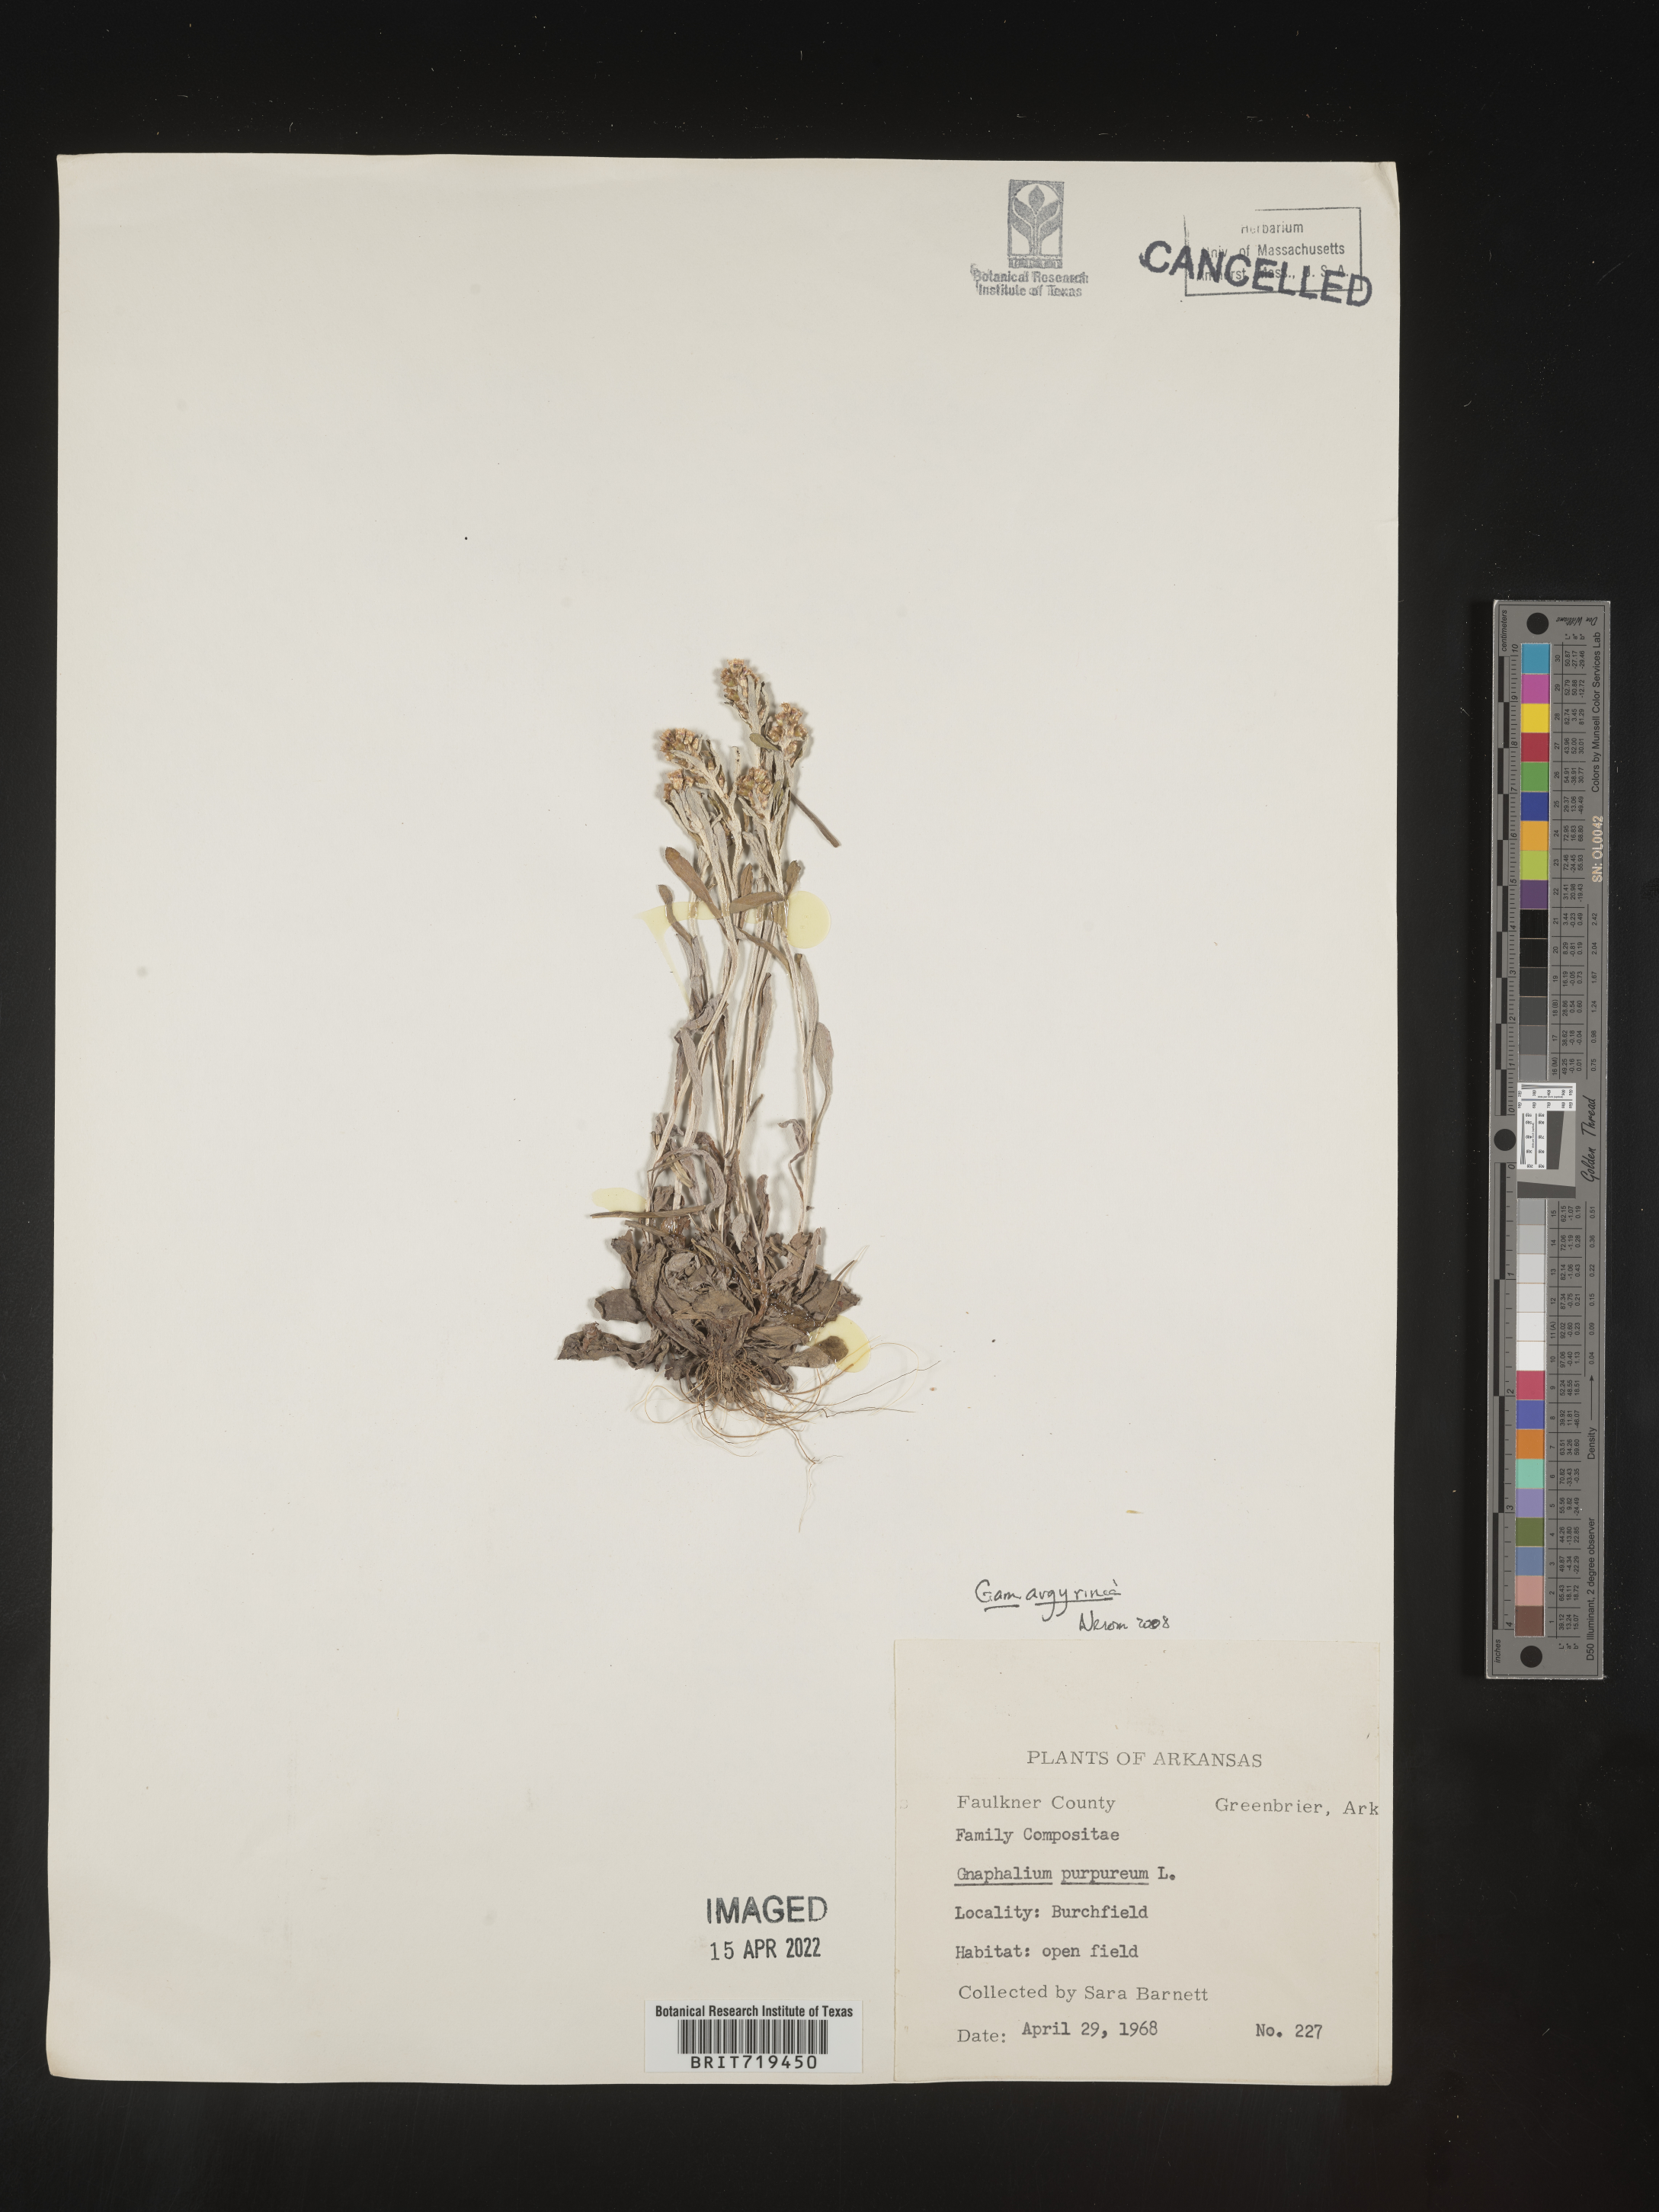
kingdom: Plantae
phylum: Tracheophyta
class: Magnoliopsida
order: Asterales
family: Asteraceae
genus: Gamochaeta
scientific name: Gamochaeta argyrinea
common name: Silvery cudweed
